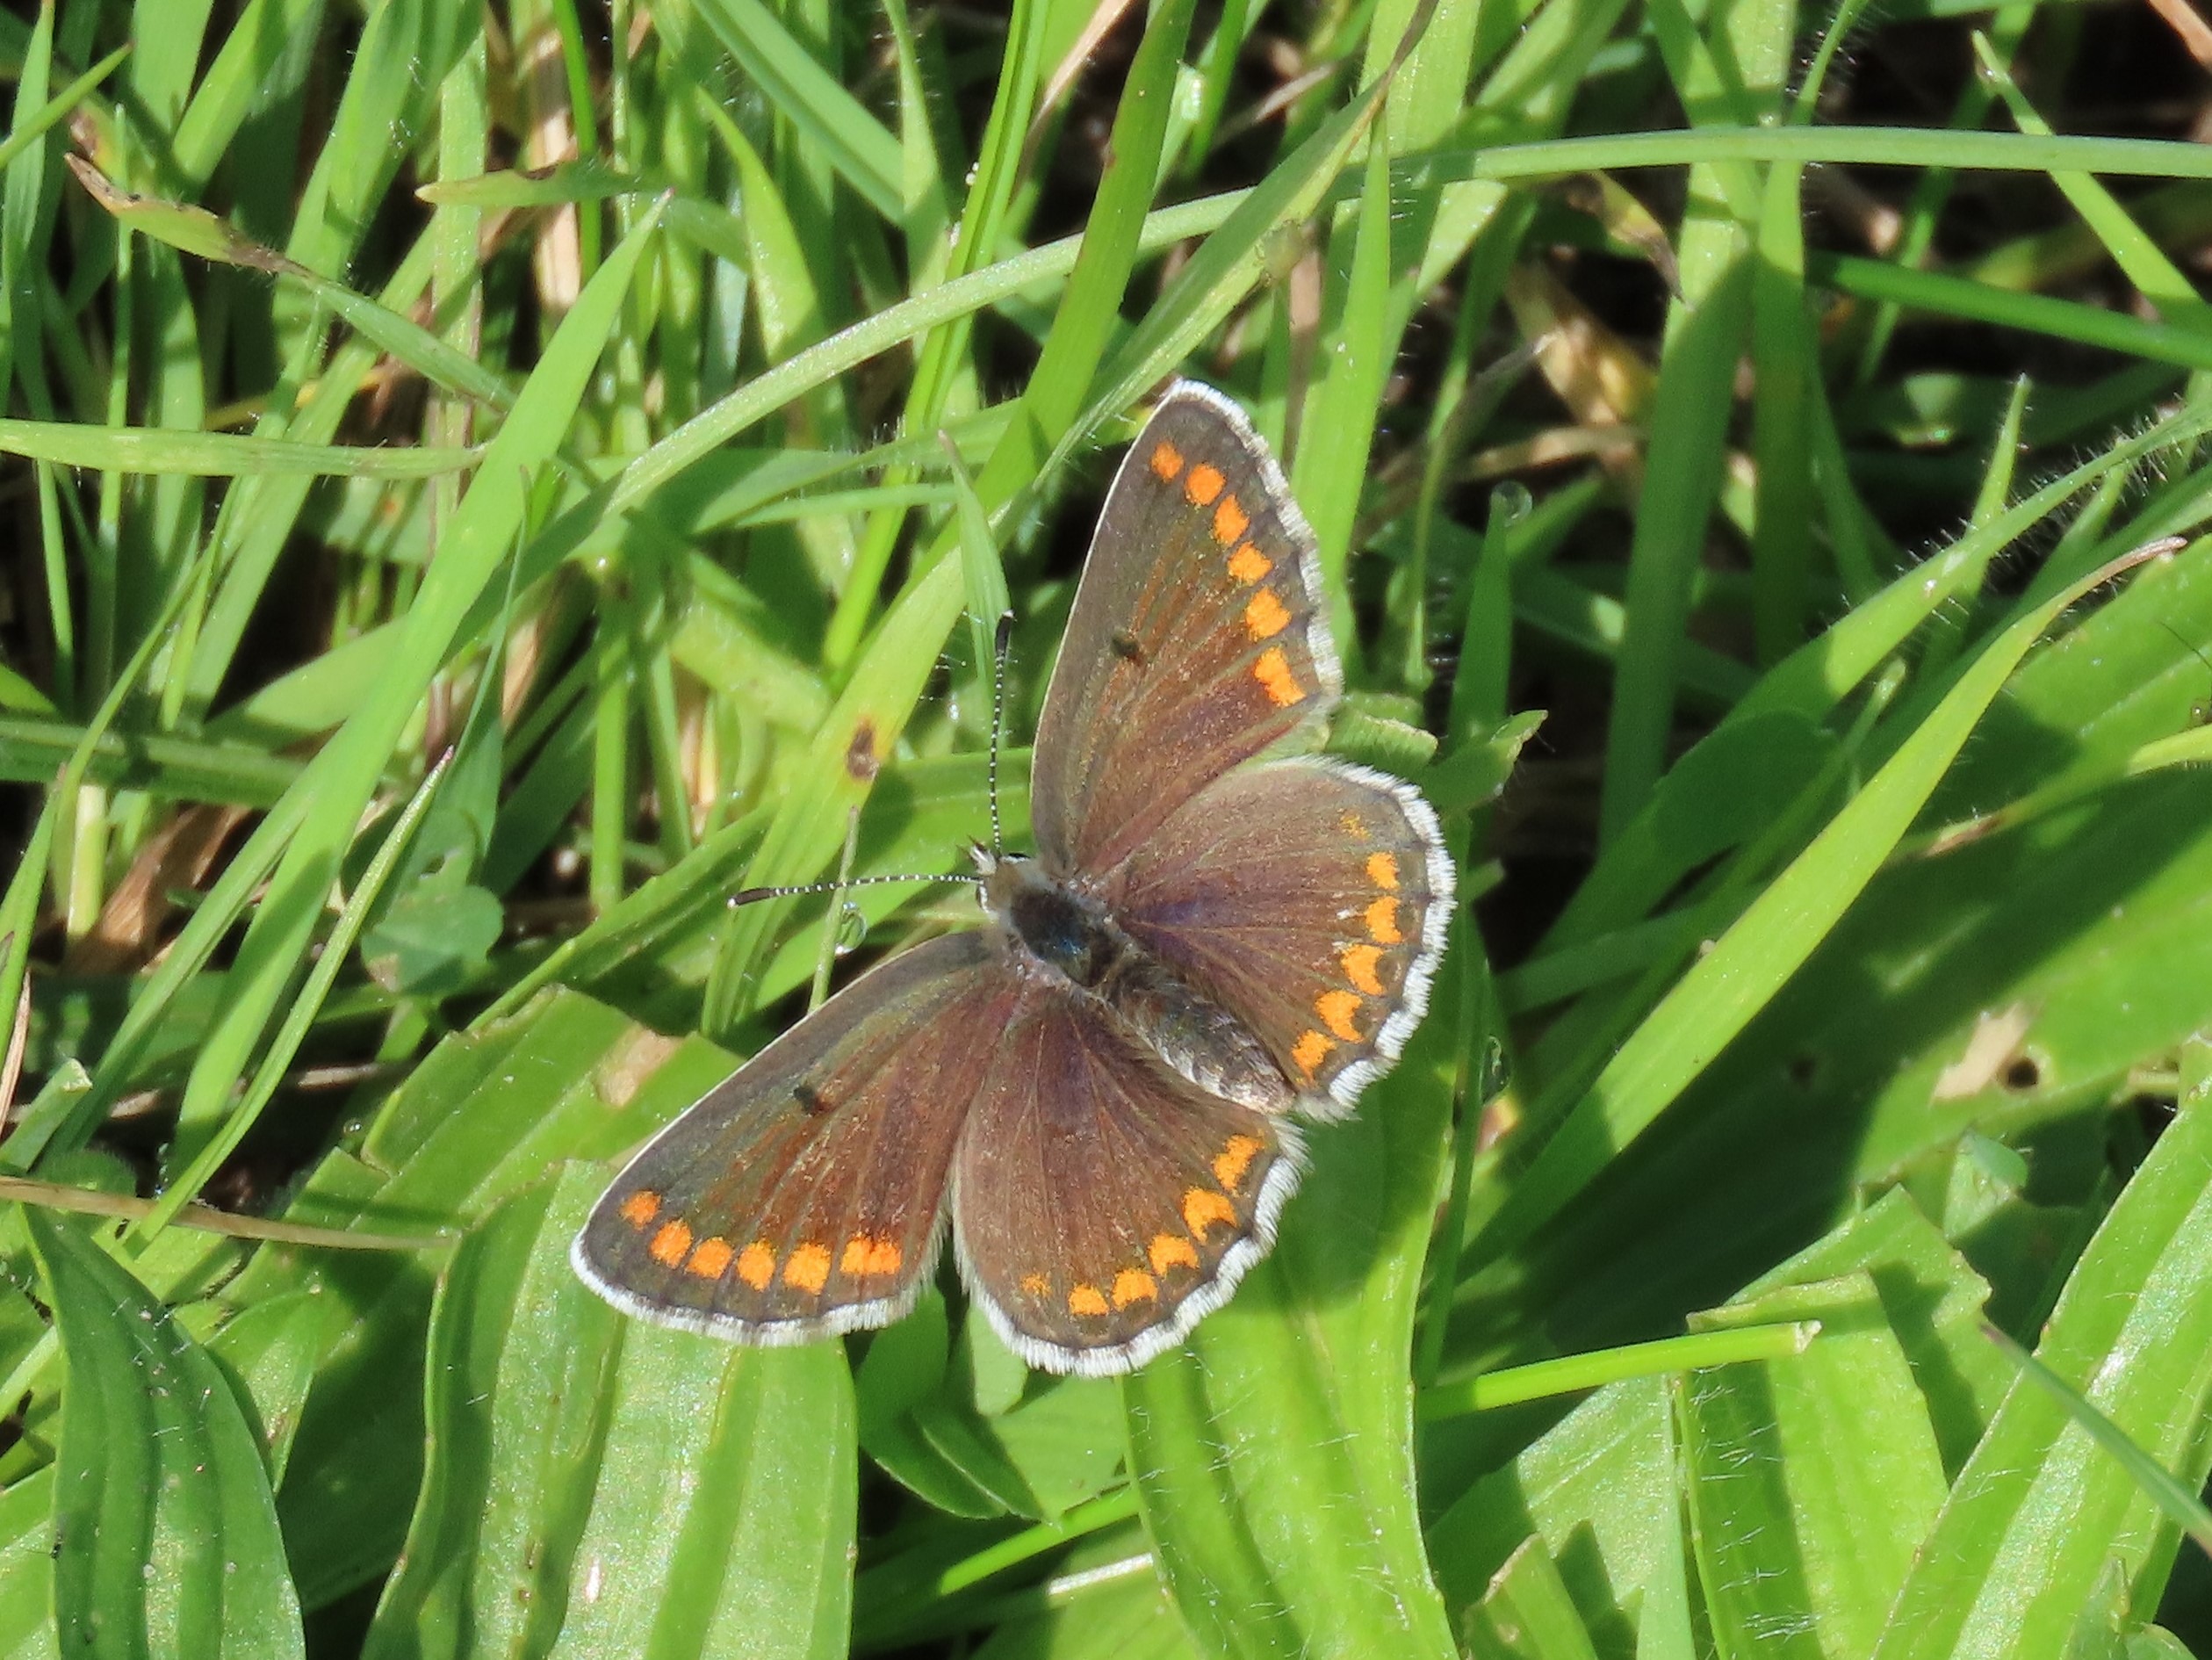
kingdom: Animalia
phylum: Arthropoda
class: Insecta
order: Lepidoptera
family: Lycaenidae
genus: Aricia
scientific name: Aricia agestis
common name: Rødplettet blåfugl
